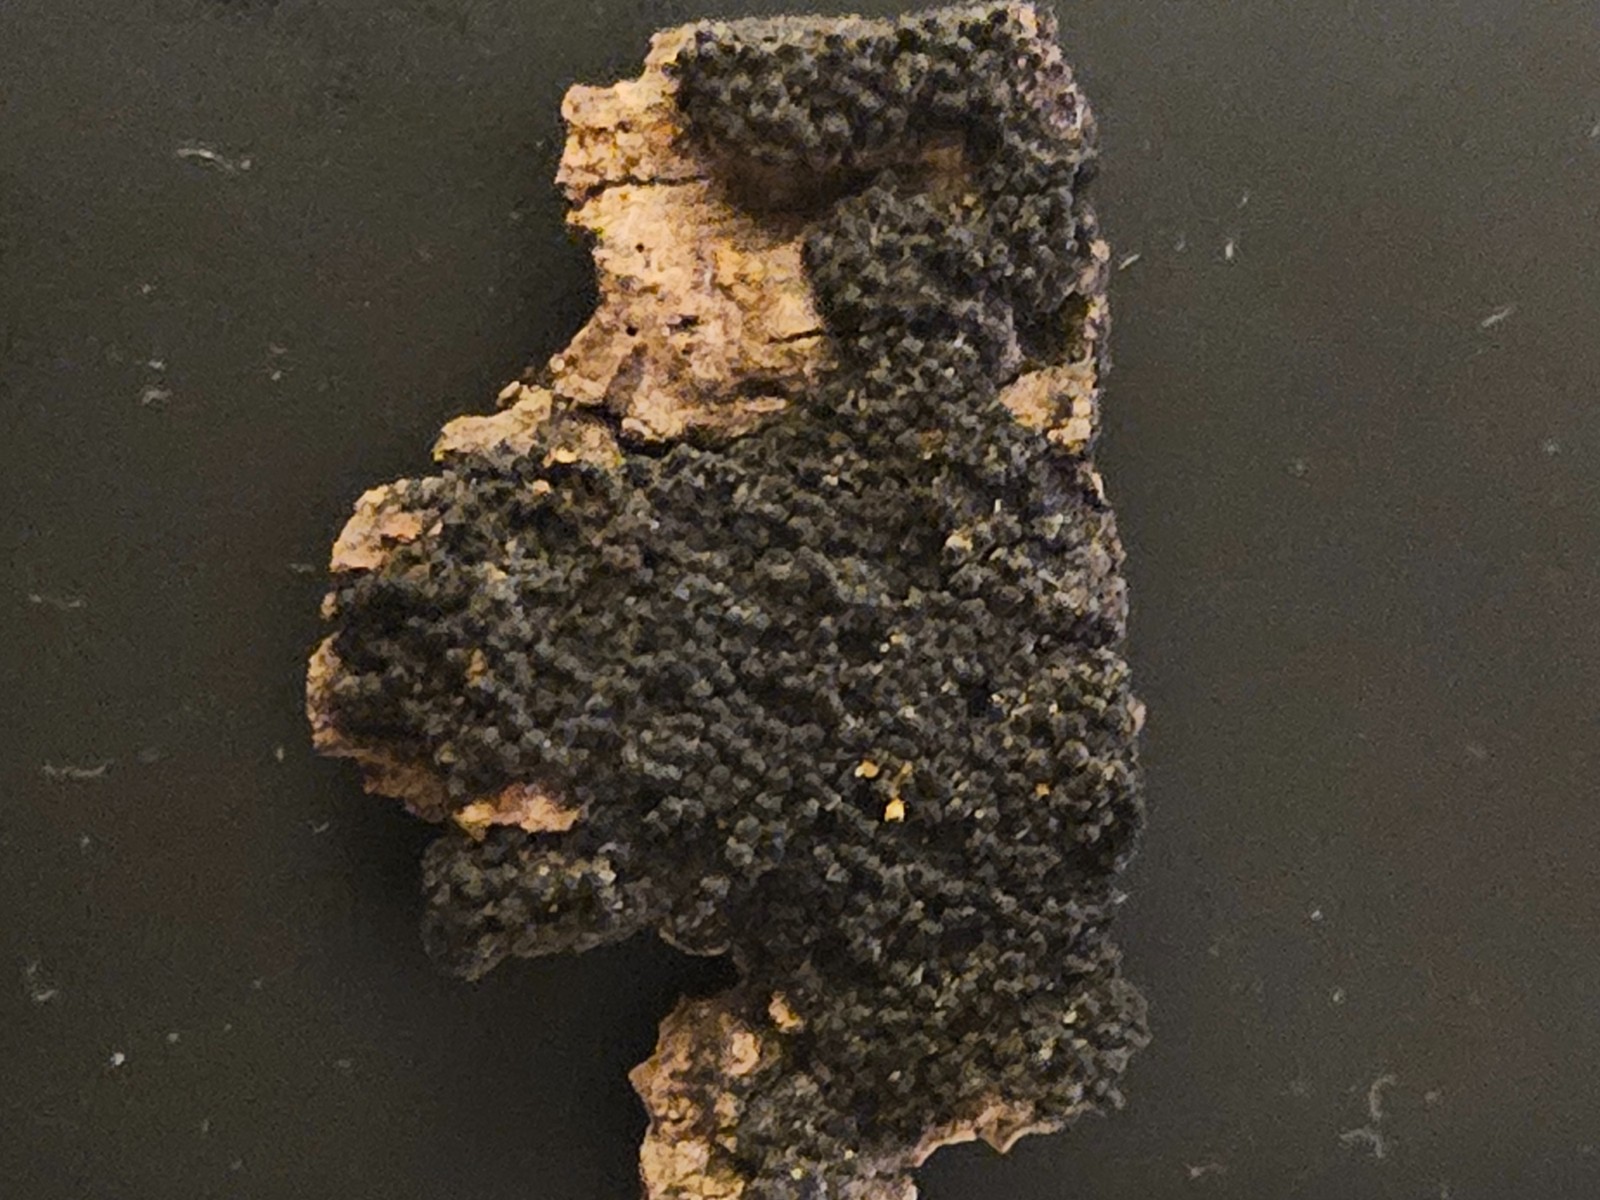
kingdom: Fungi
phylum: Ascomycota
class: Sordariomycetes
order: Xylariales
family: Diatrypaceae
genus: Eutypa
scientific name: Eutypa spinosa
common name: grov kulskorpe
